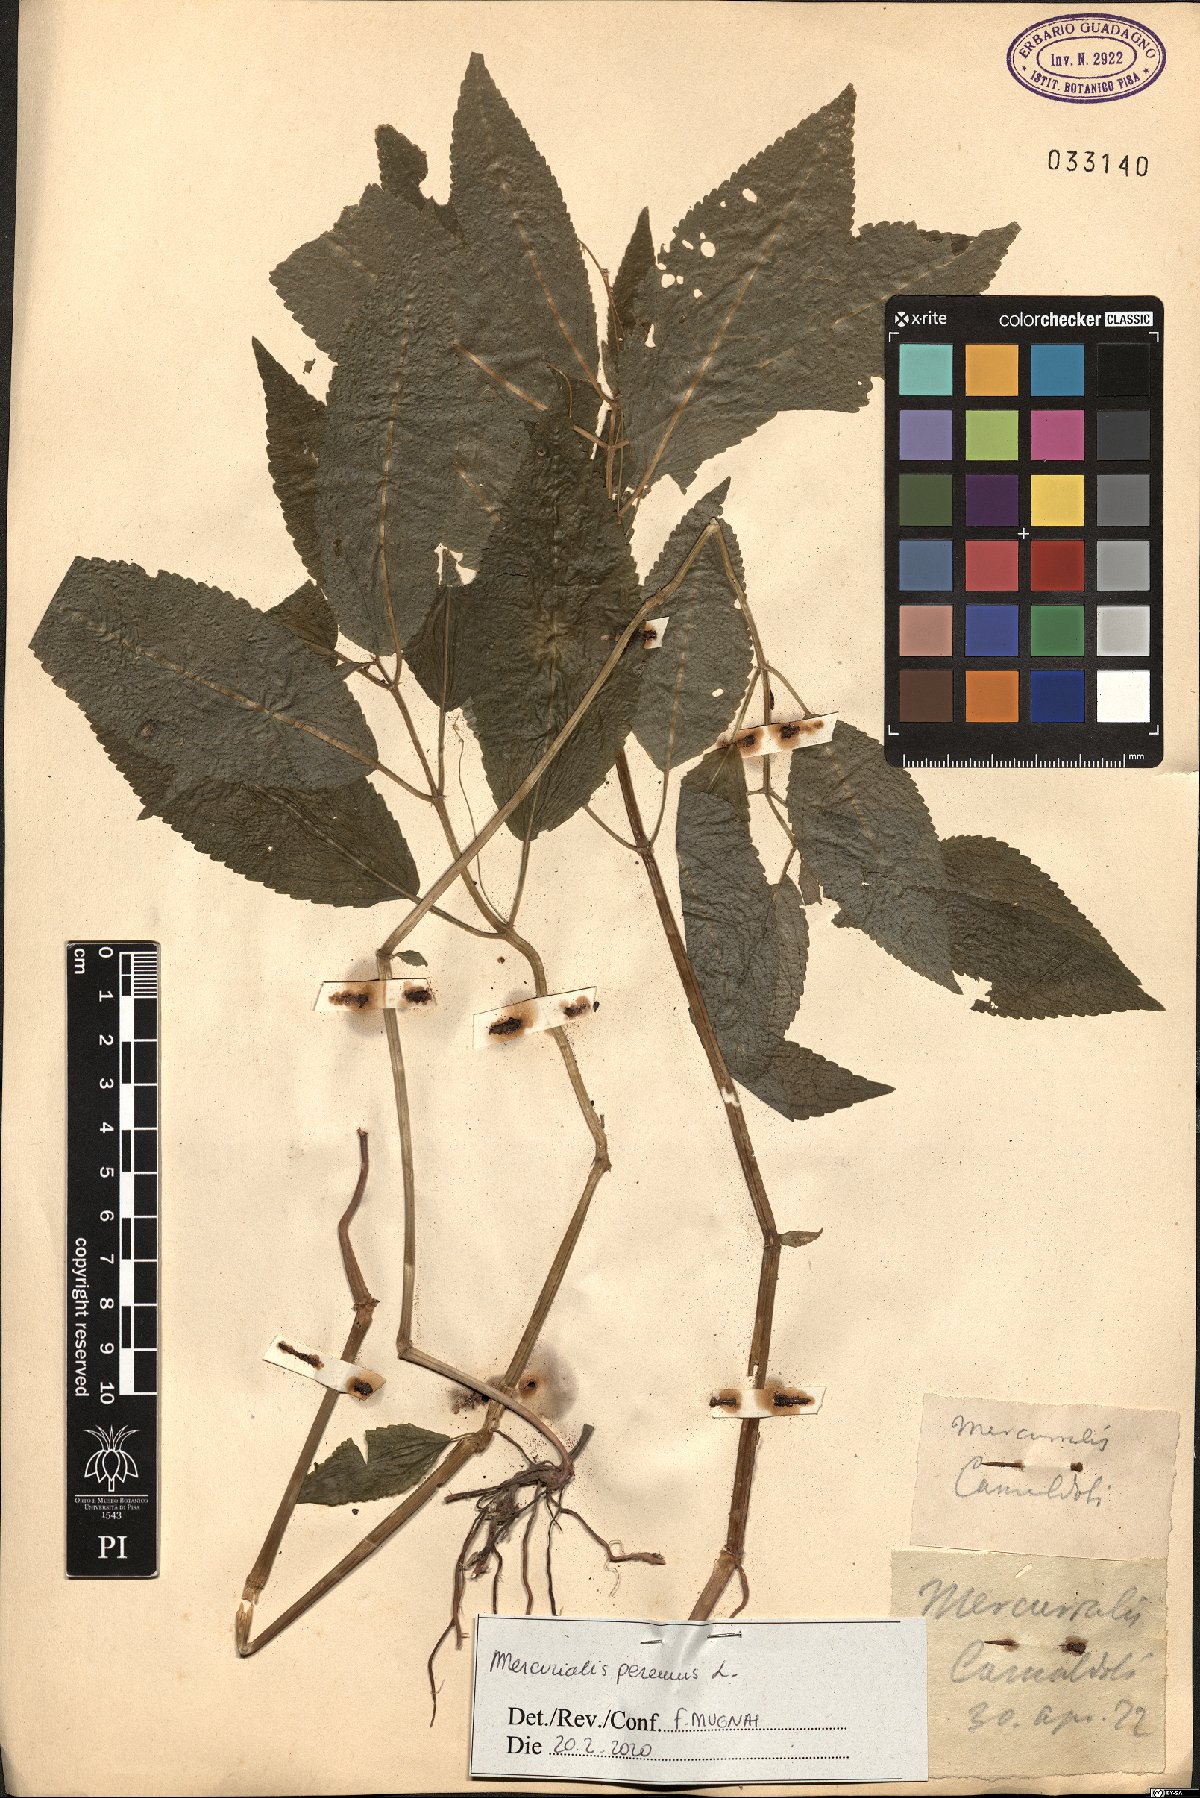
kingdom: Plantae
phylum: Tracheophyta
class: Magnoliopsida
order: Malpighiales
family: Euphorbiaceae
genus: Mercurialis
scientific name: Mercurialis perennis
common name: Dog mercury
